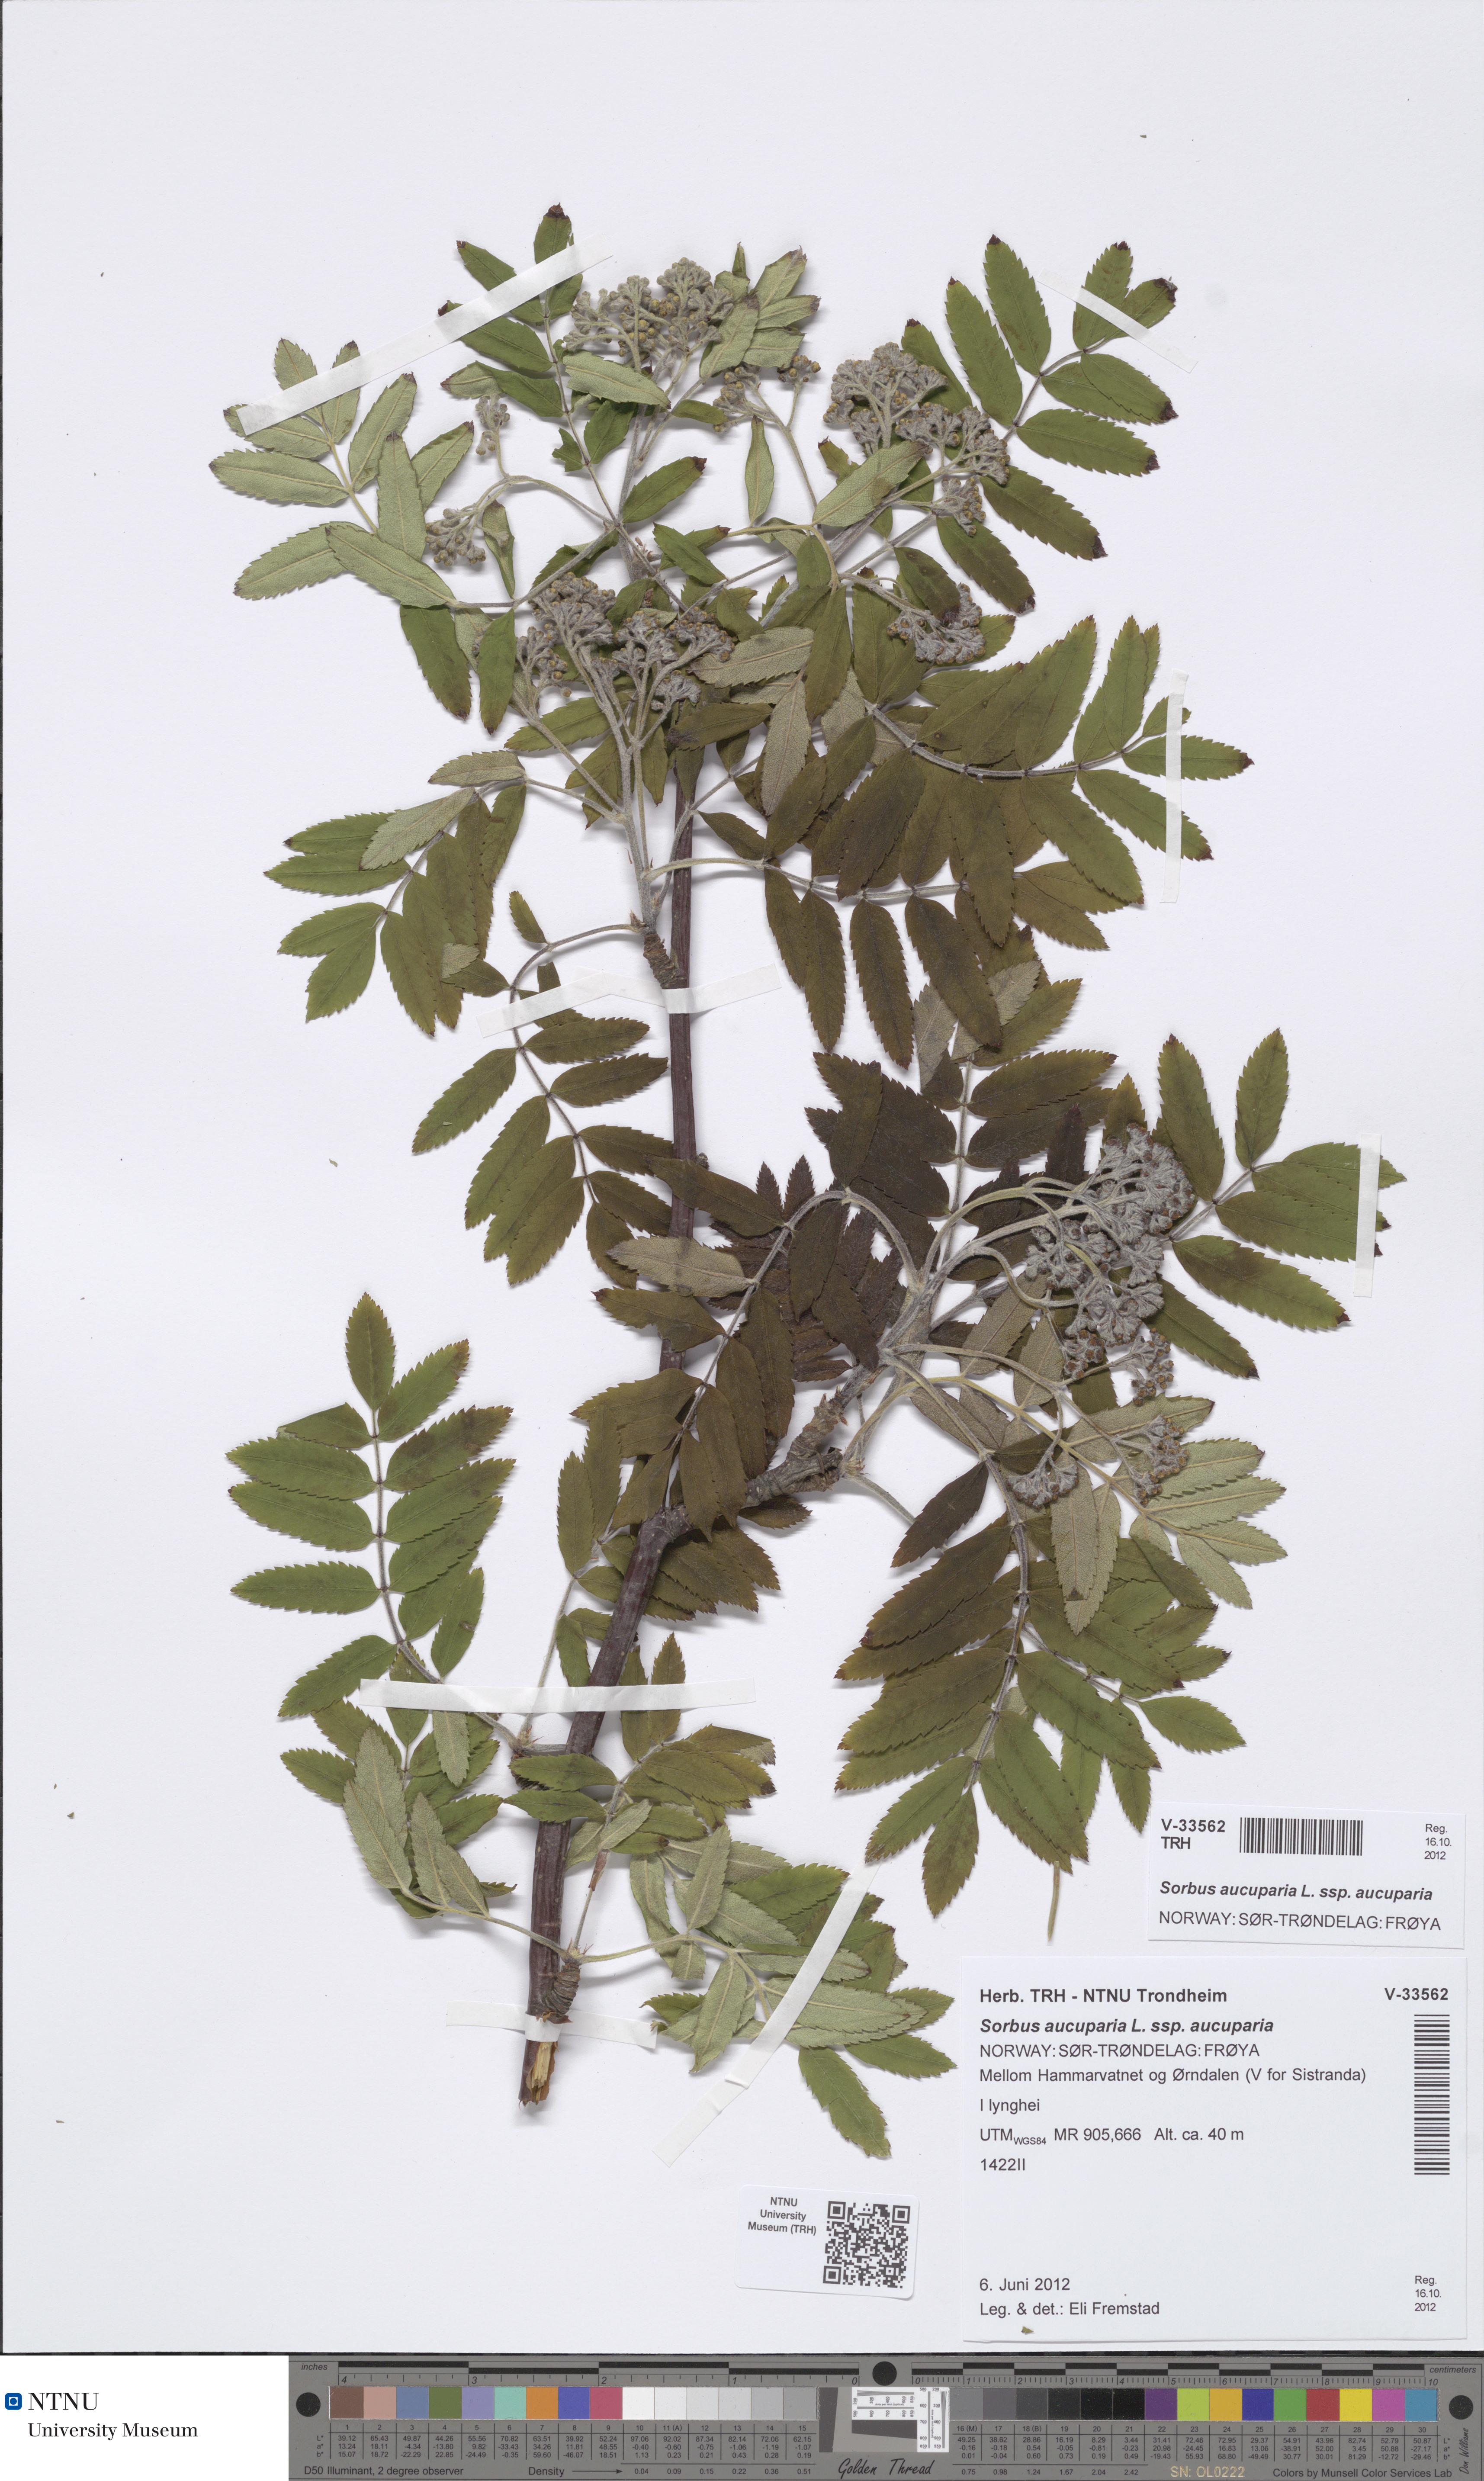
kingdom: Plantae
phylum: Tracheophyta
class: Magnoliopsida
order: Rosales
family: Rosaceae
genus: Sorbus
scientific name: Sorbus aucuparia
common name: Rowan
